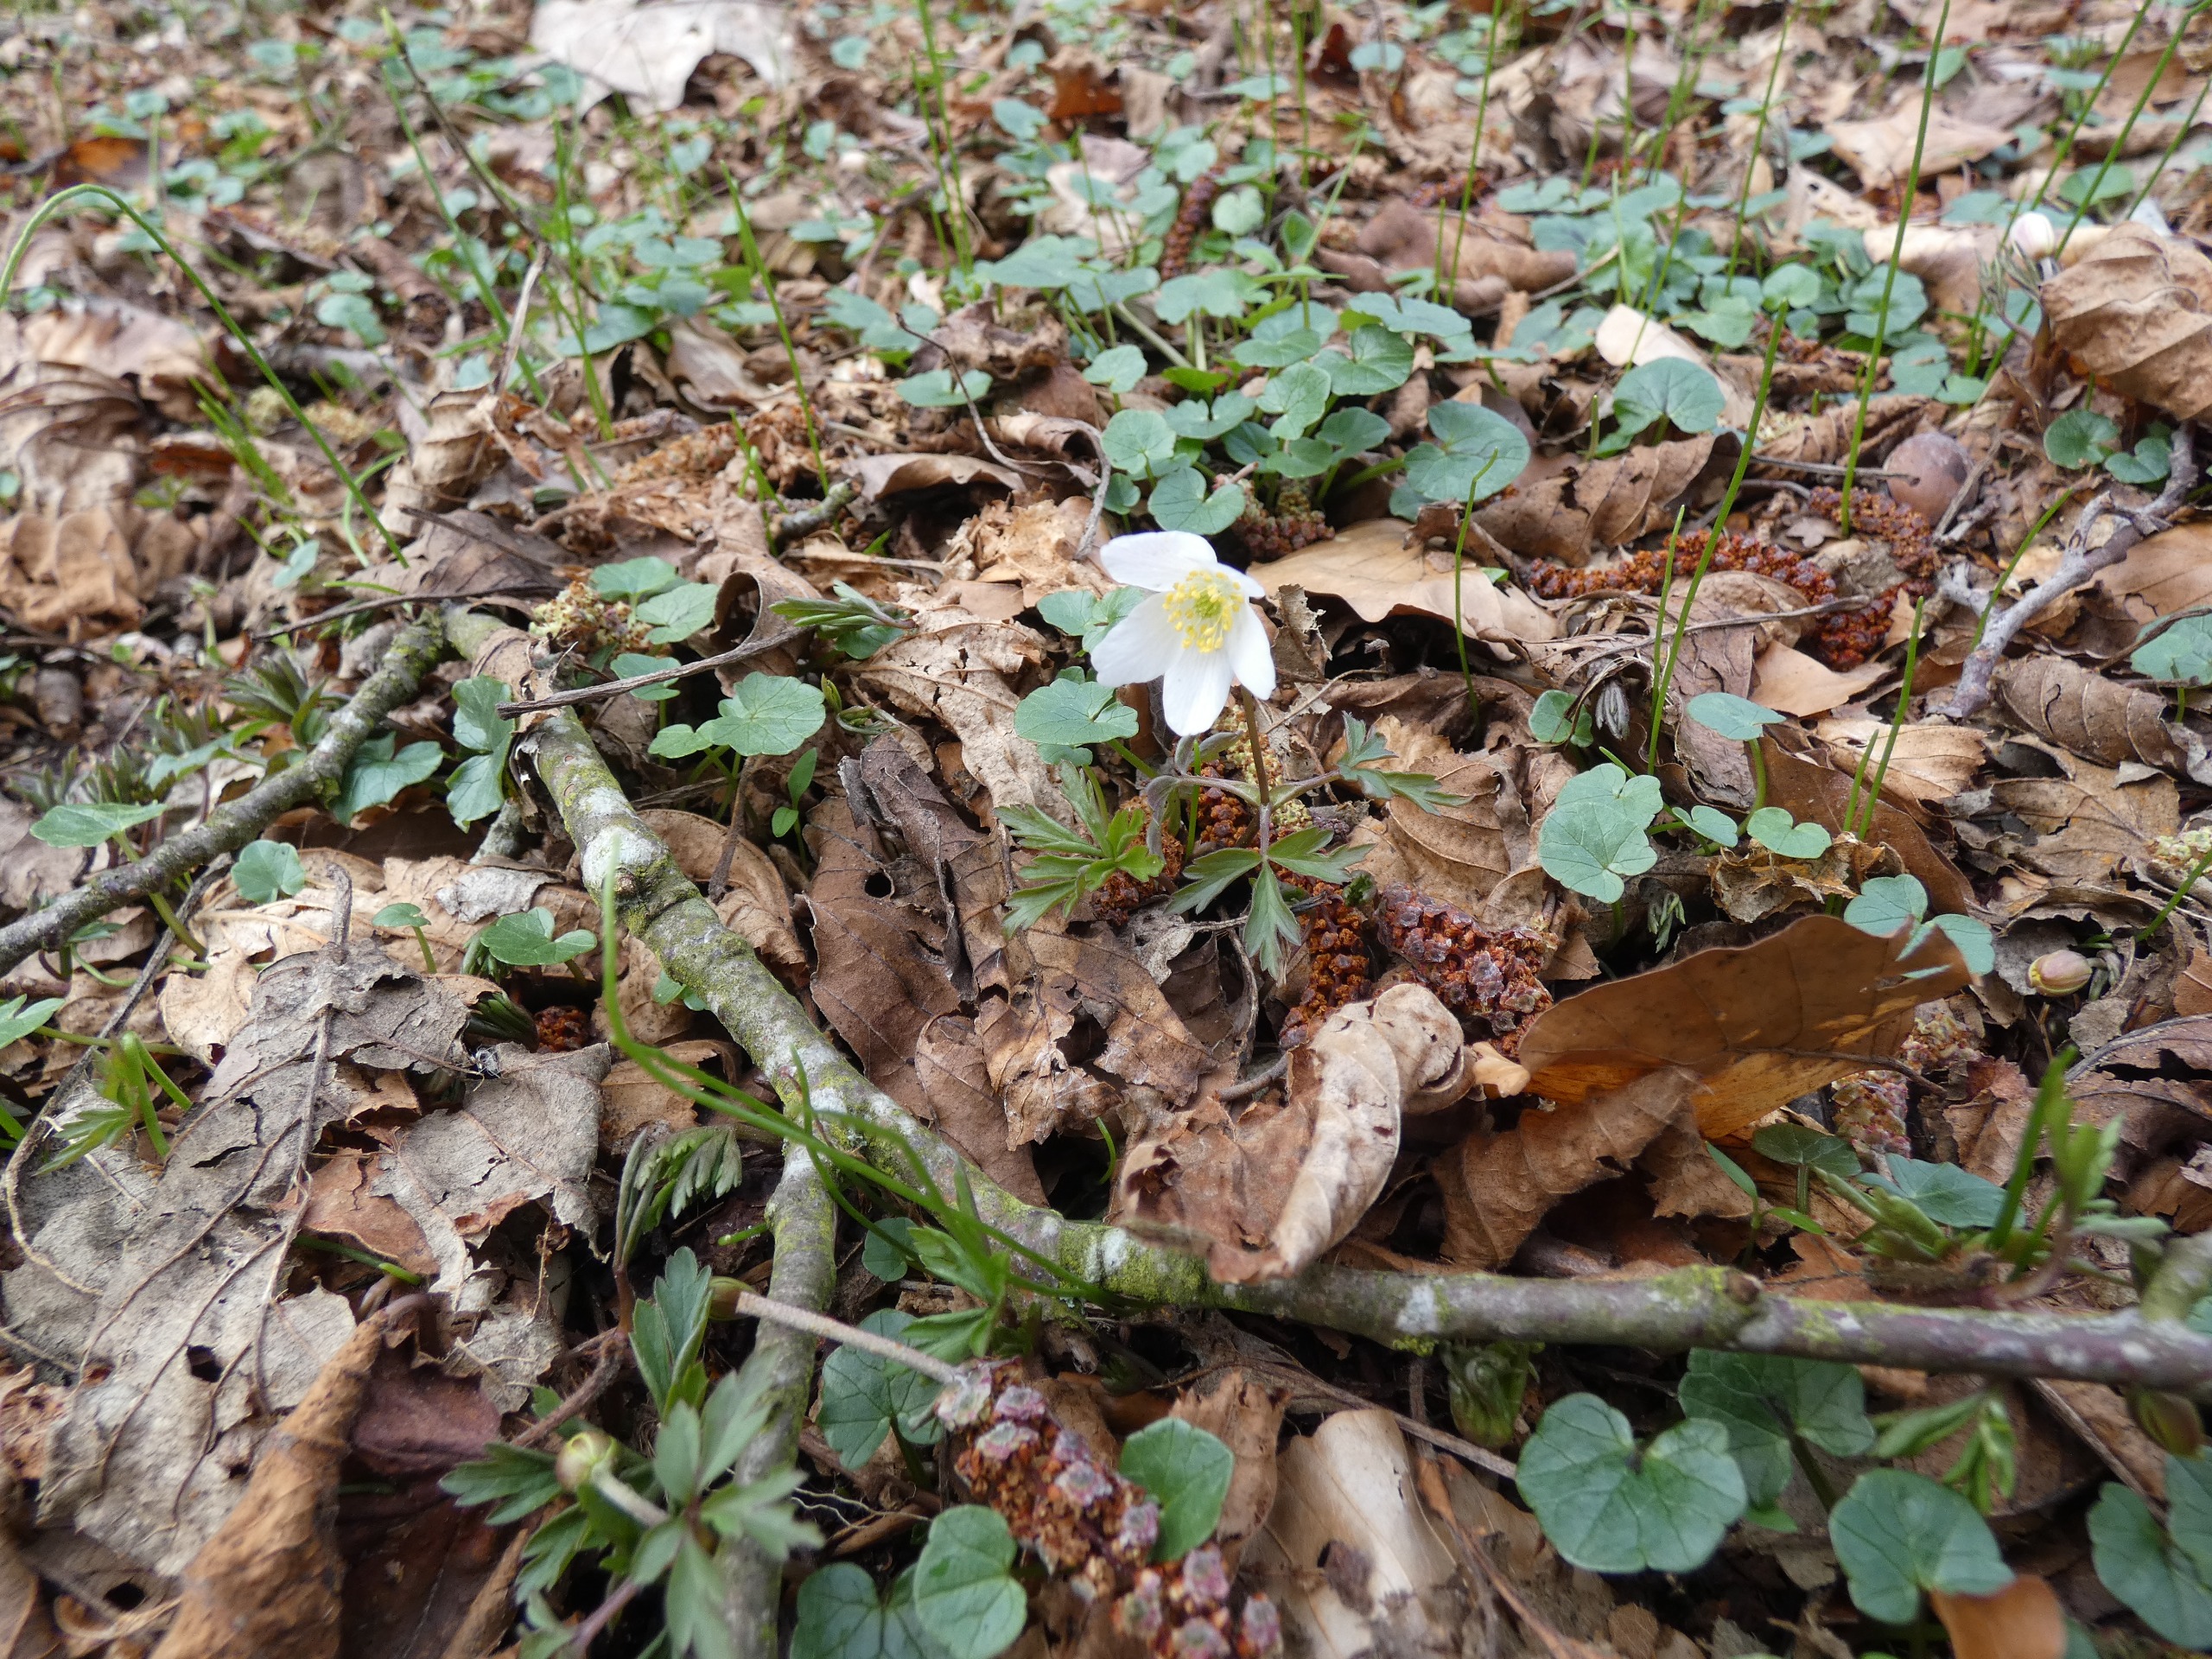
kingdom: Plantae
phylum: Tracheophyta
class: Magnoliopsida
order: Ranunculales
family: Ranunculaceae
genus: Anemone
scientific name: Anemone nemorosa
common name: Hvid anemone
